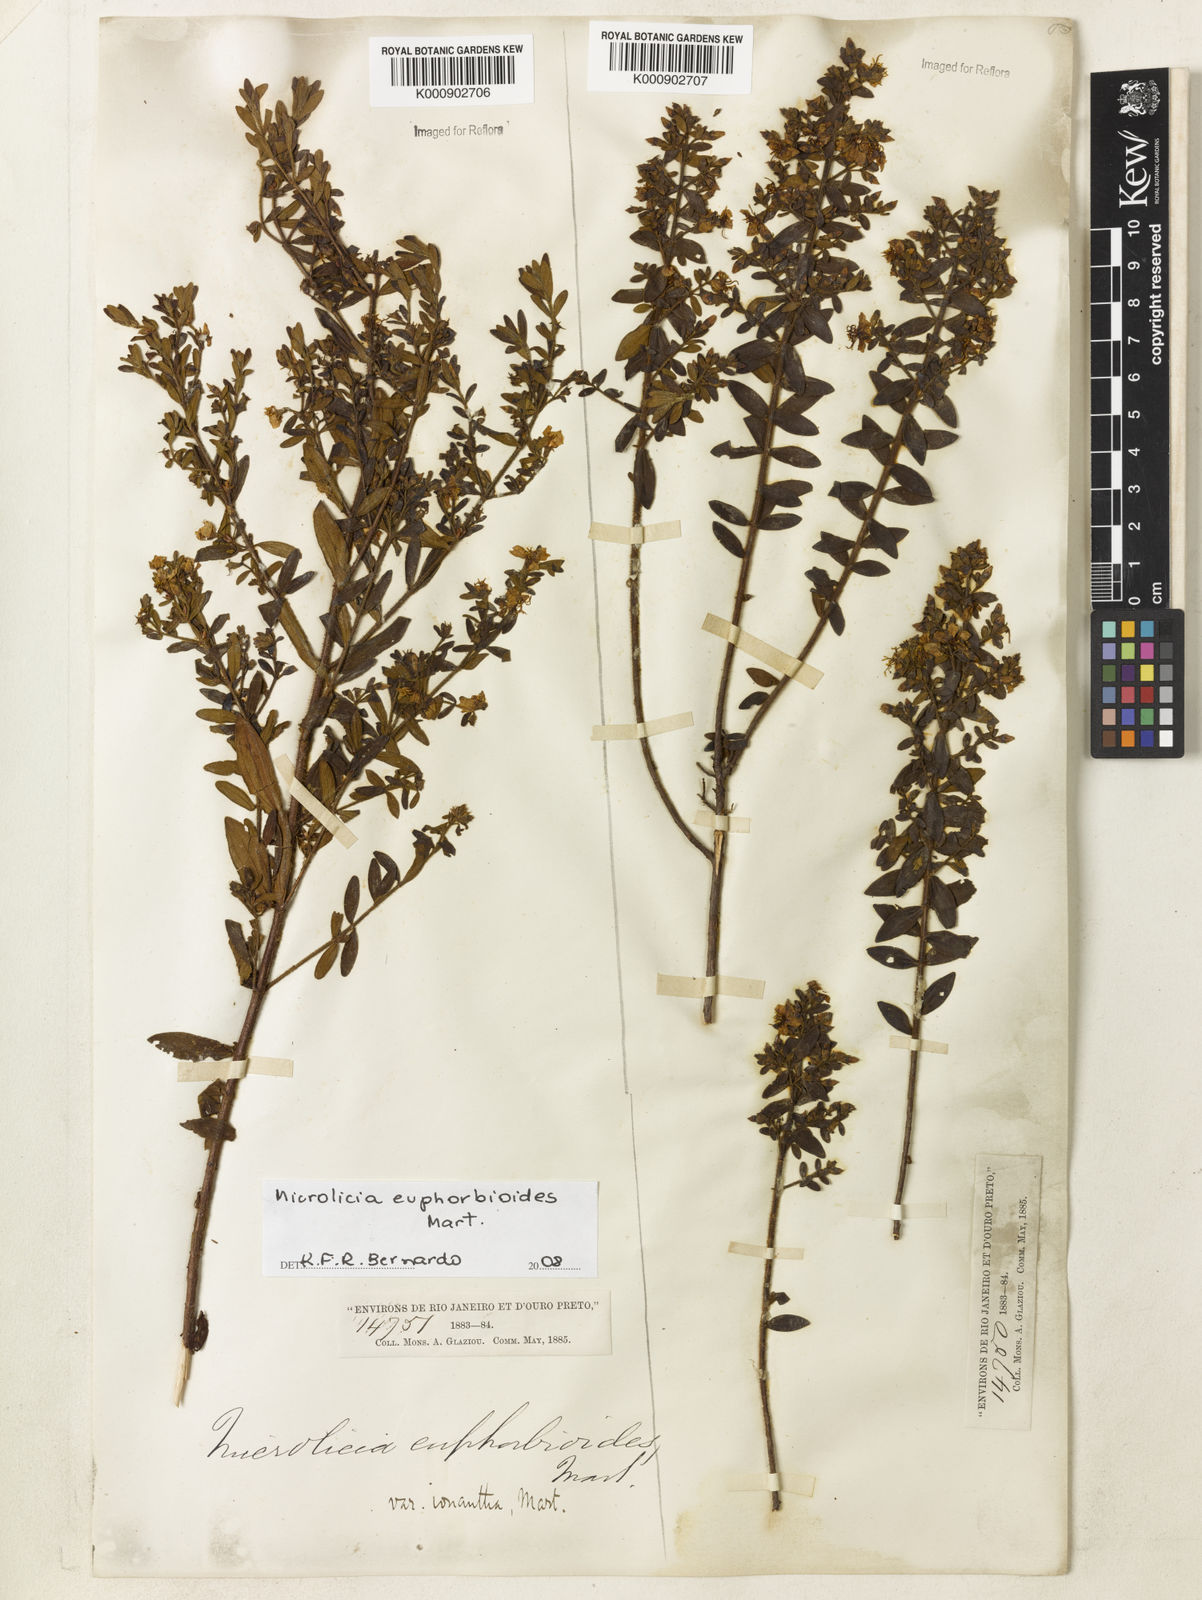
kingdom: Plantae
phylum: Tracheophyta
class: Magnoliopsida
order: Myrtales
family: Melastomataceae
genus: Microlicia
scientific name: Microlicia euphorbioides
